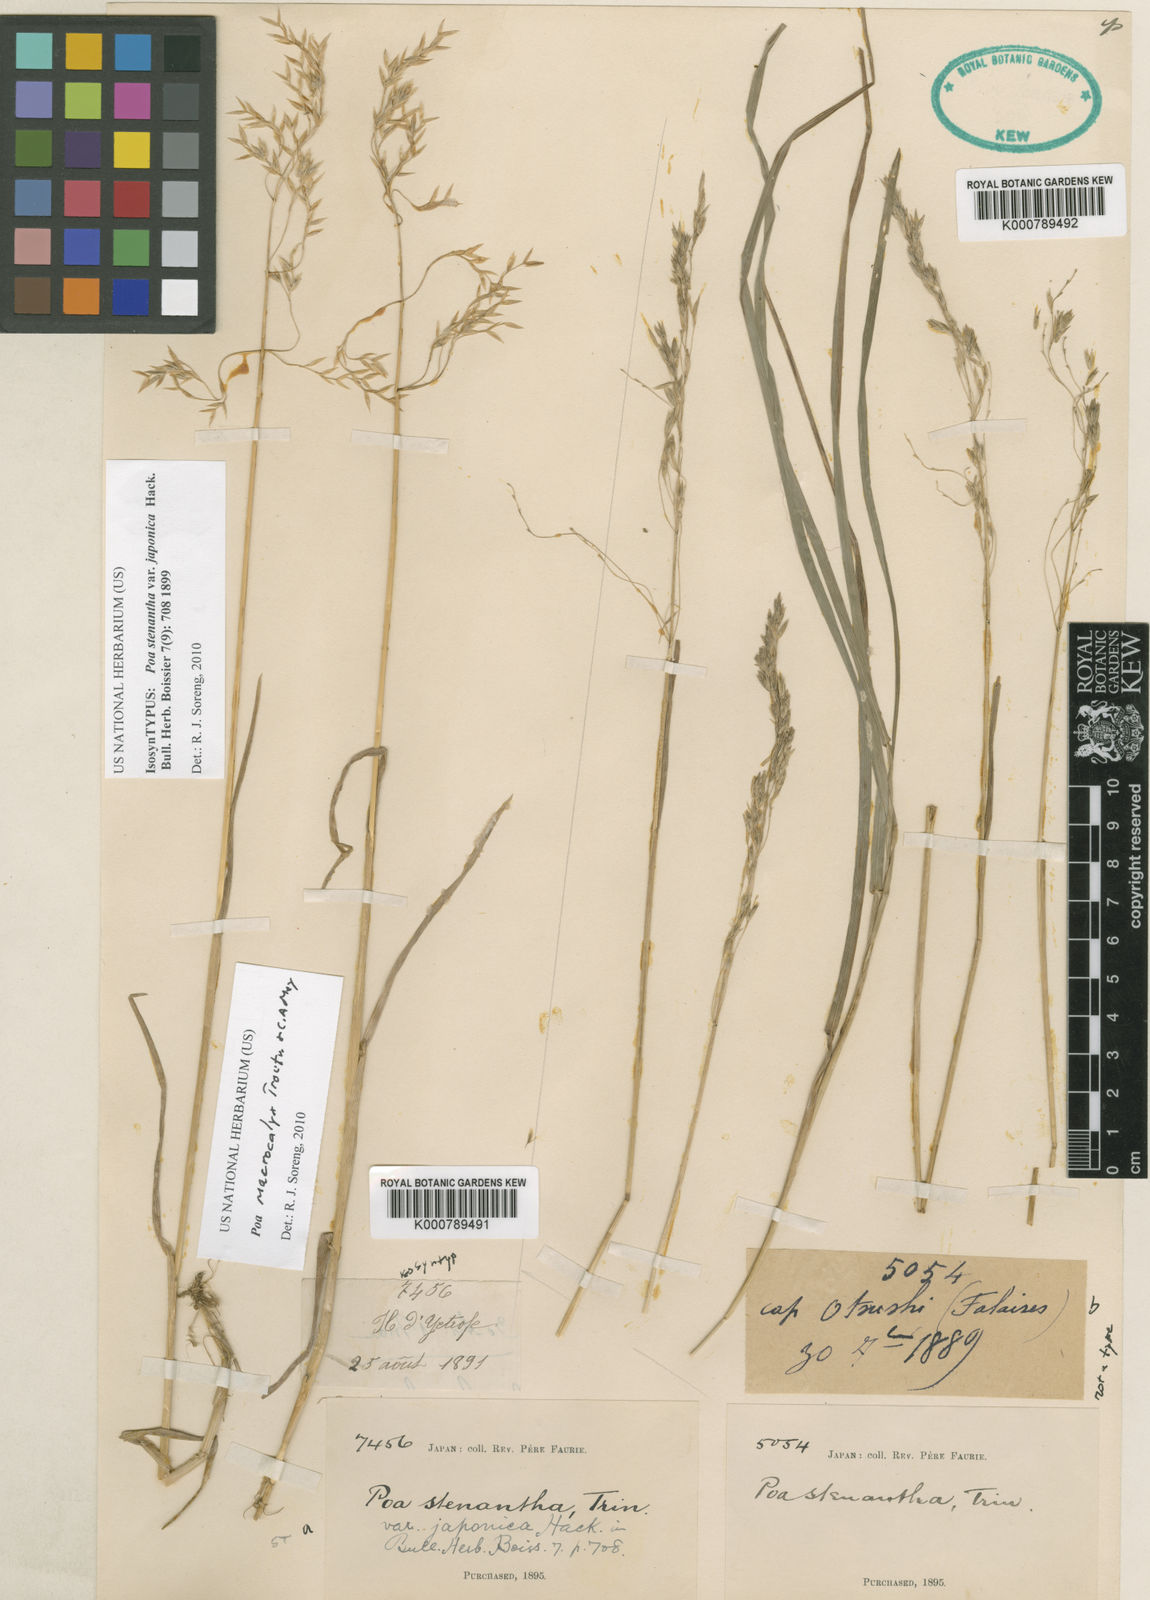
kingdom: Plantae
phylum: Tracheophyta
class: Liliopsida
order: Poales
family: Poaceae
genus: Poa
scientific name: Poa macrocalyx
